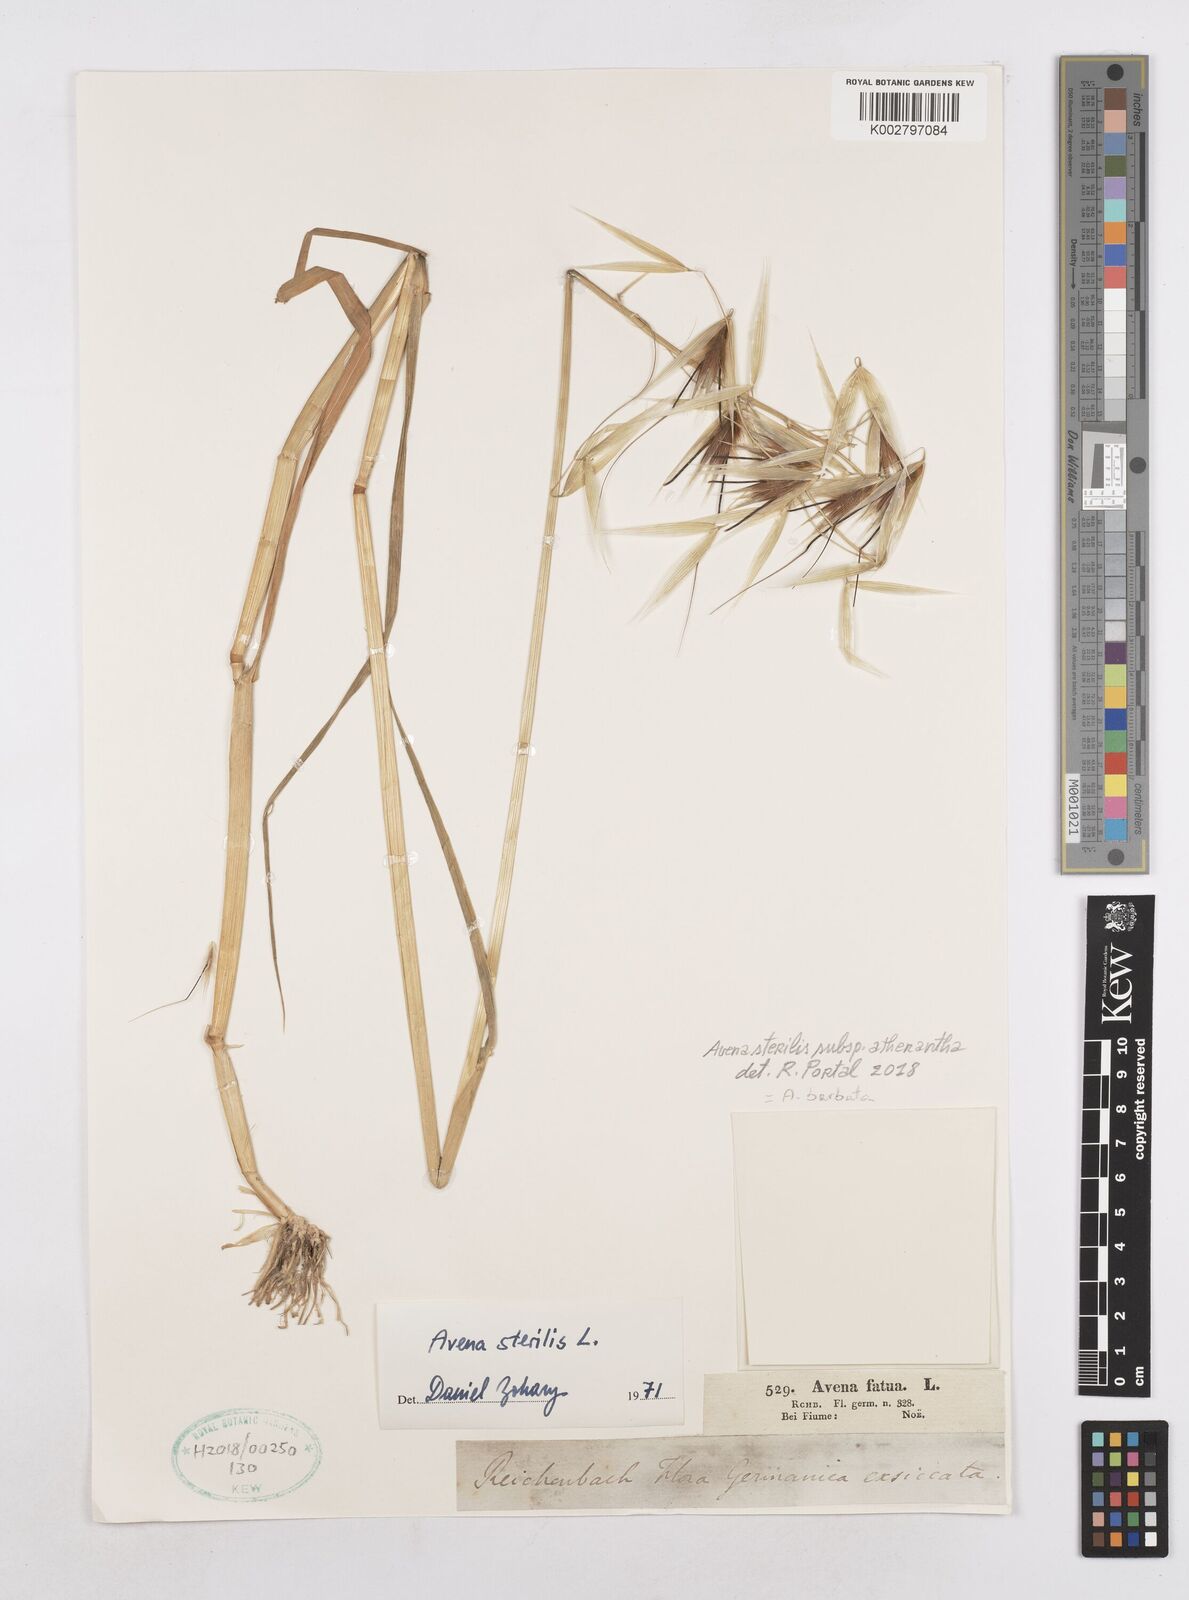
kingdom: Plantae
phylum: Tracheophyta
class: Liliopsida
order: Poales
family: Poaceae
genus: Avena
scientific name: Avena
